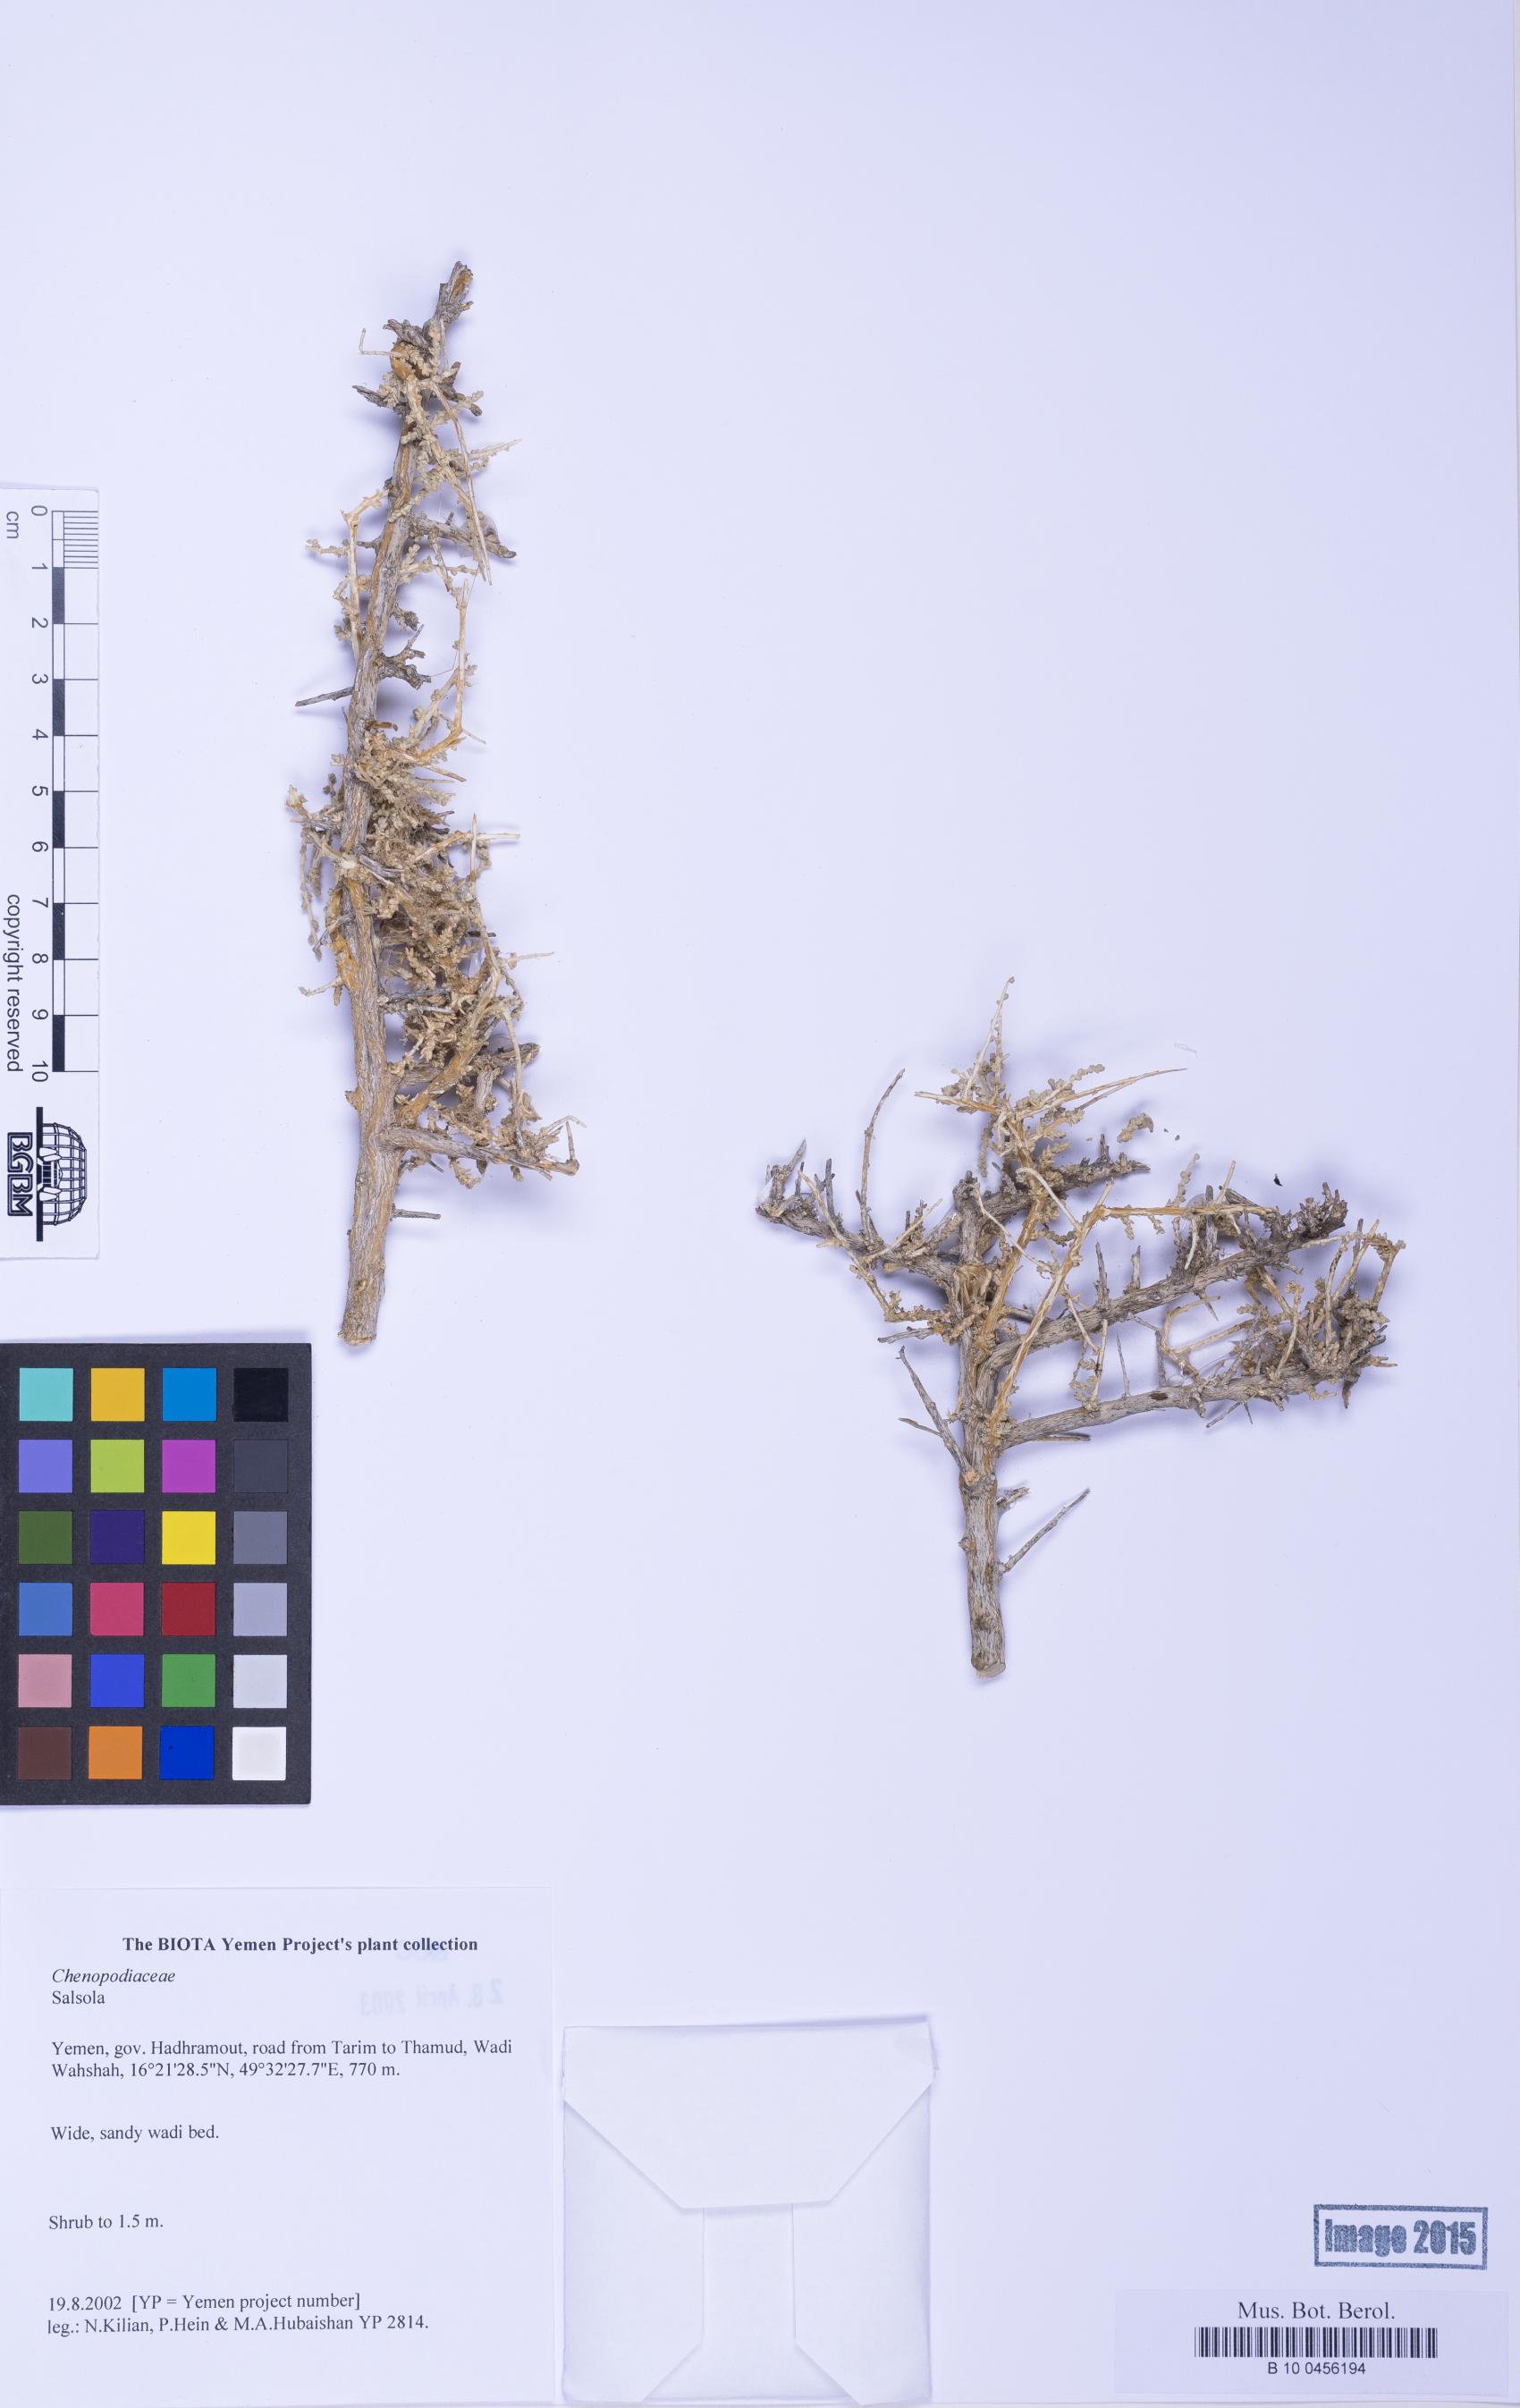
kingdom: Plantae
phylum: Tracheophyta
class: Magnoliopsida
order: Caryophyllales
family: Amaranthaceae
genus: Salsola
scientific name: Salsola
